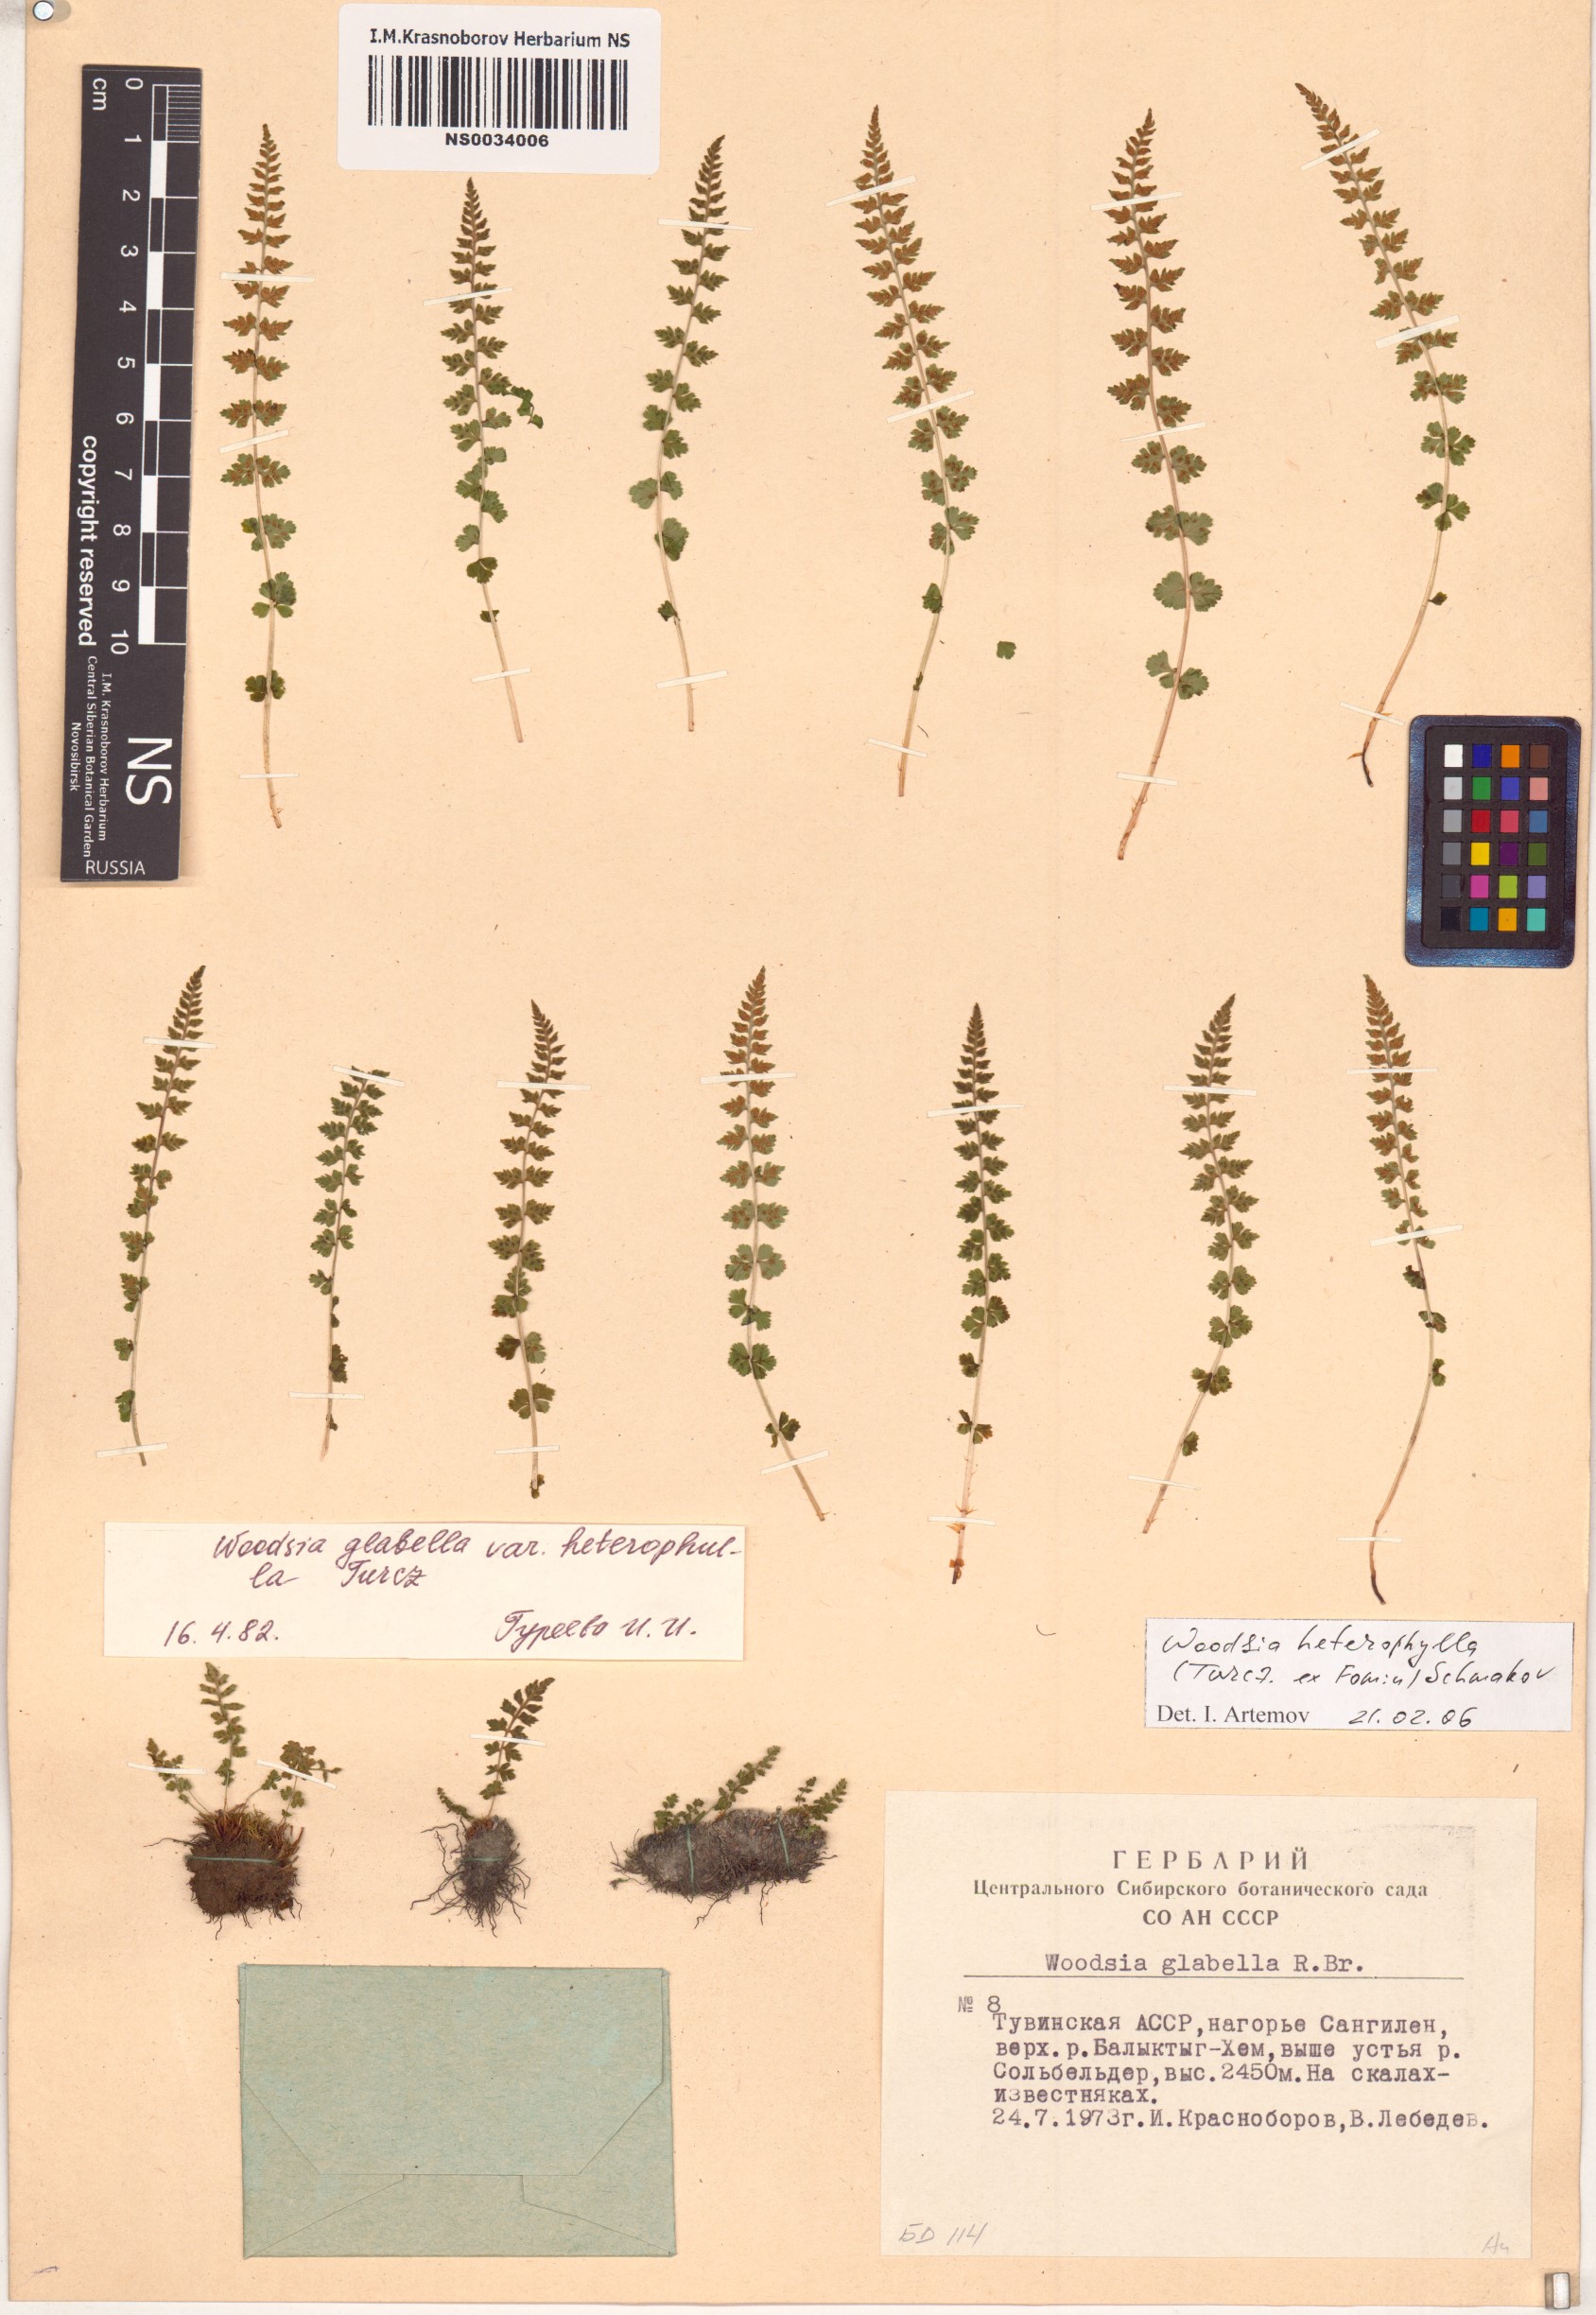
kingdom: Plantae
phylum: Tracheophyta
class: Polypodiopsida
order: Polypodiales
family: Woodsiaceae
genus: Woodsia
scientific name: Woodsia pulchella
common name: Graceful woodsia
